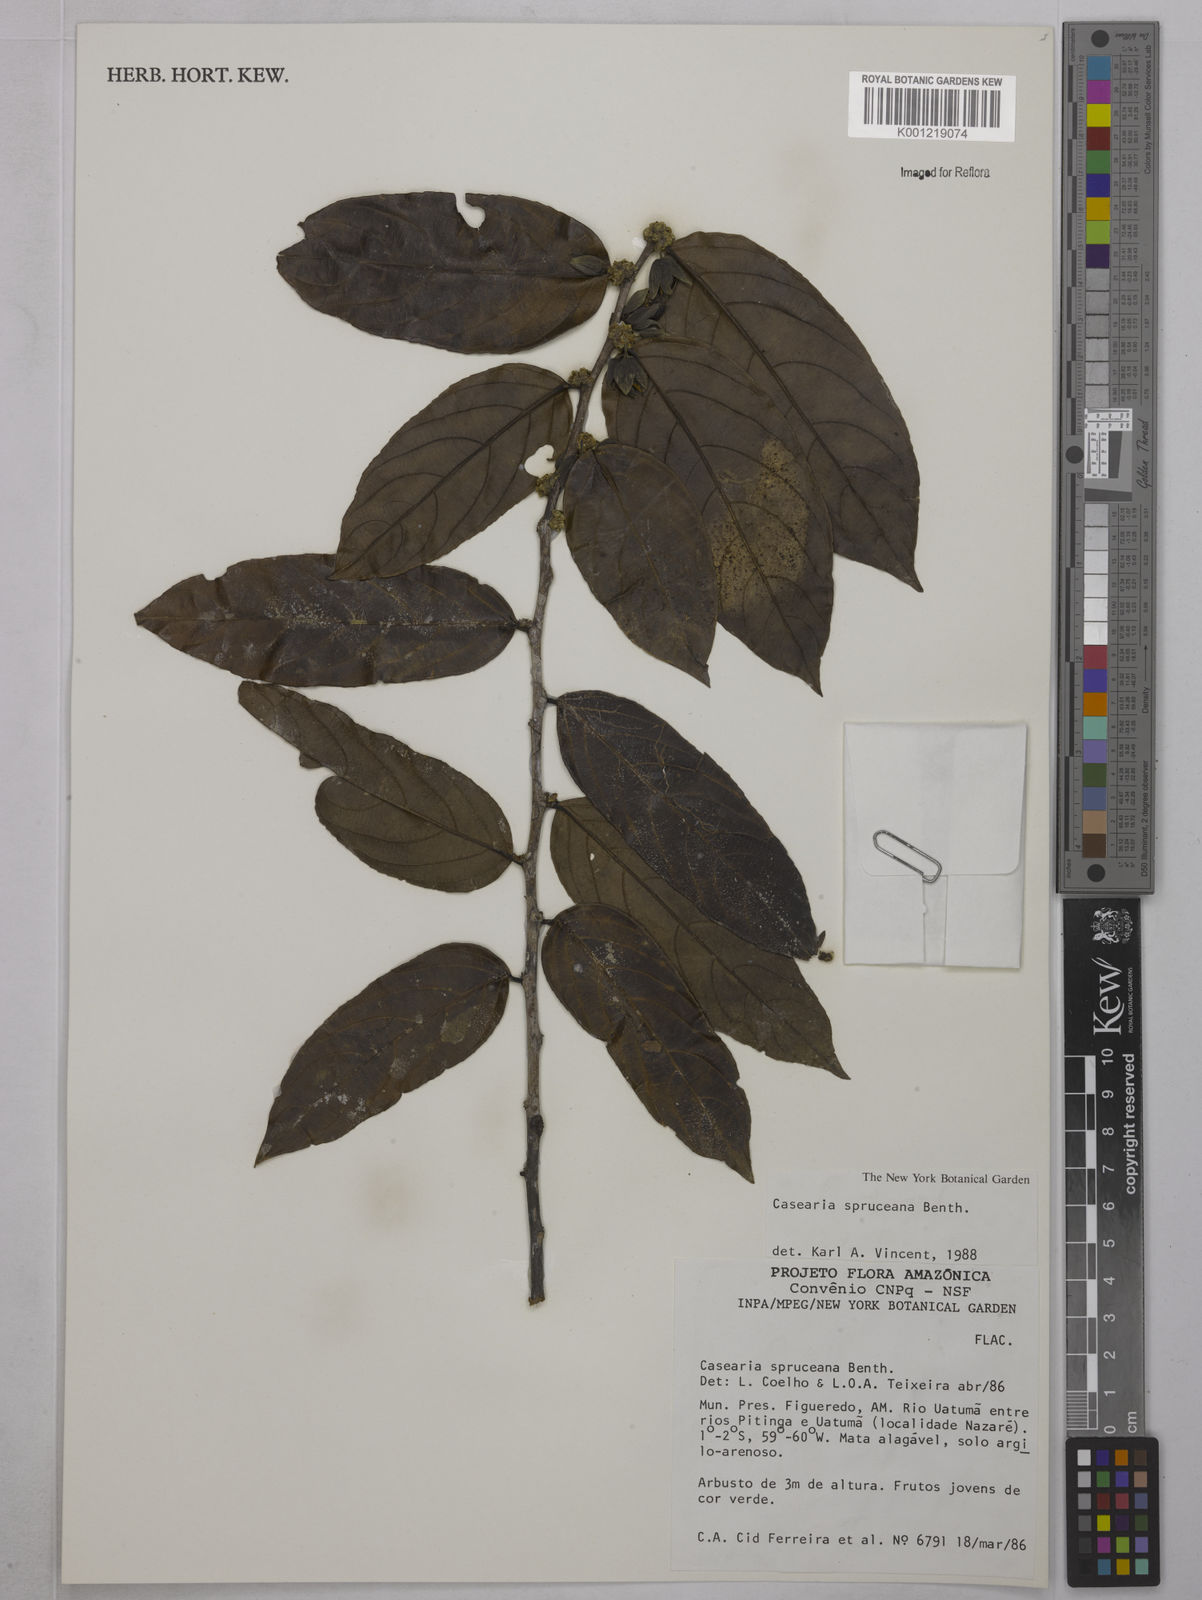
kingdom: Plantae
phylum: Tracheophyta
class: Magnoliopsida
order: Malpighiales
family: Salicaceae
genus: Piparea
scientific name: Piparea spruceana
